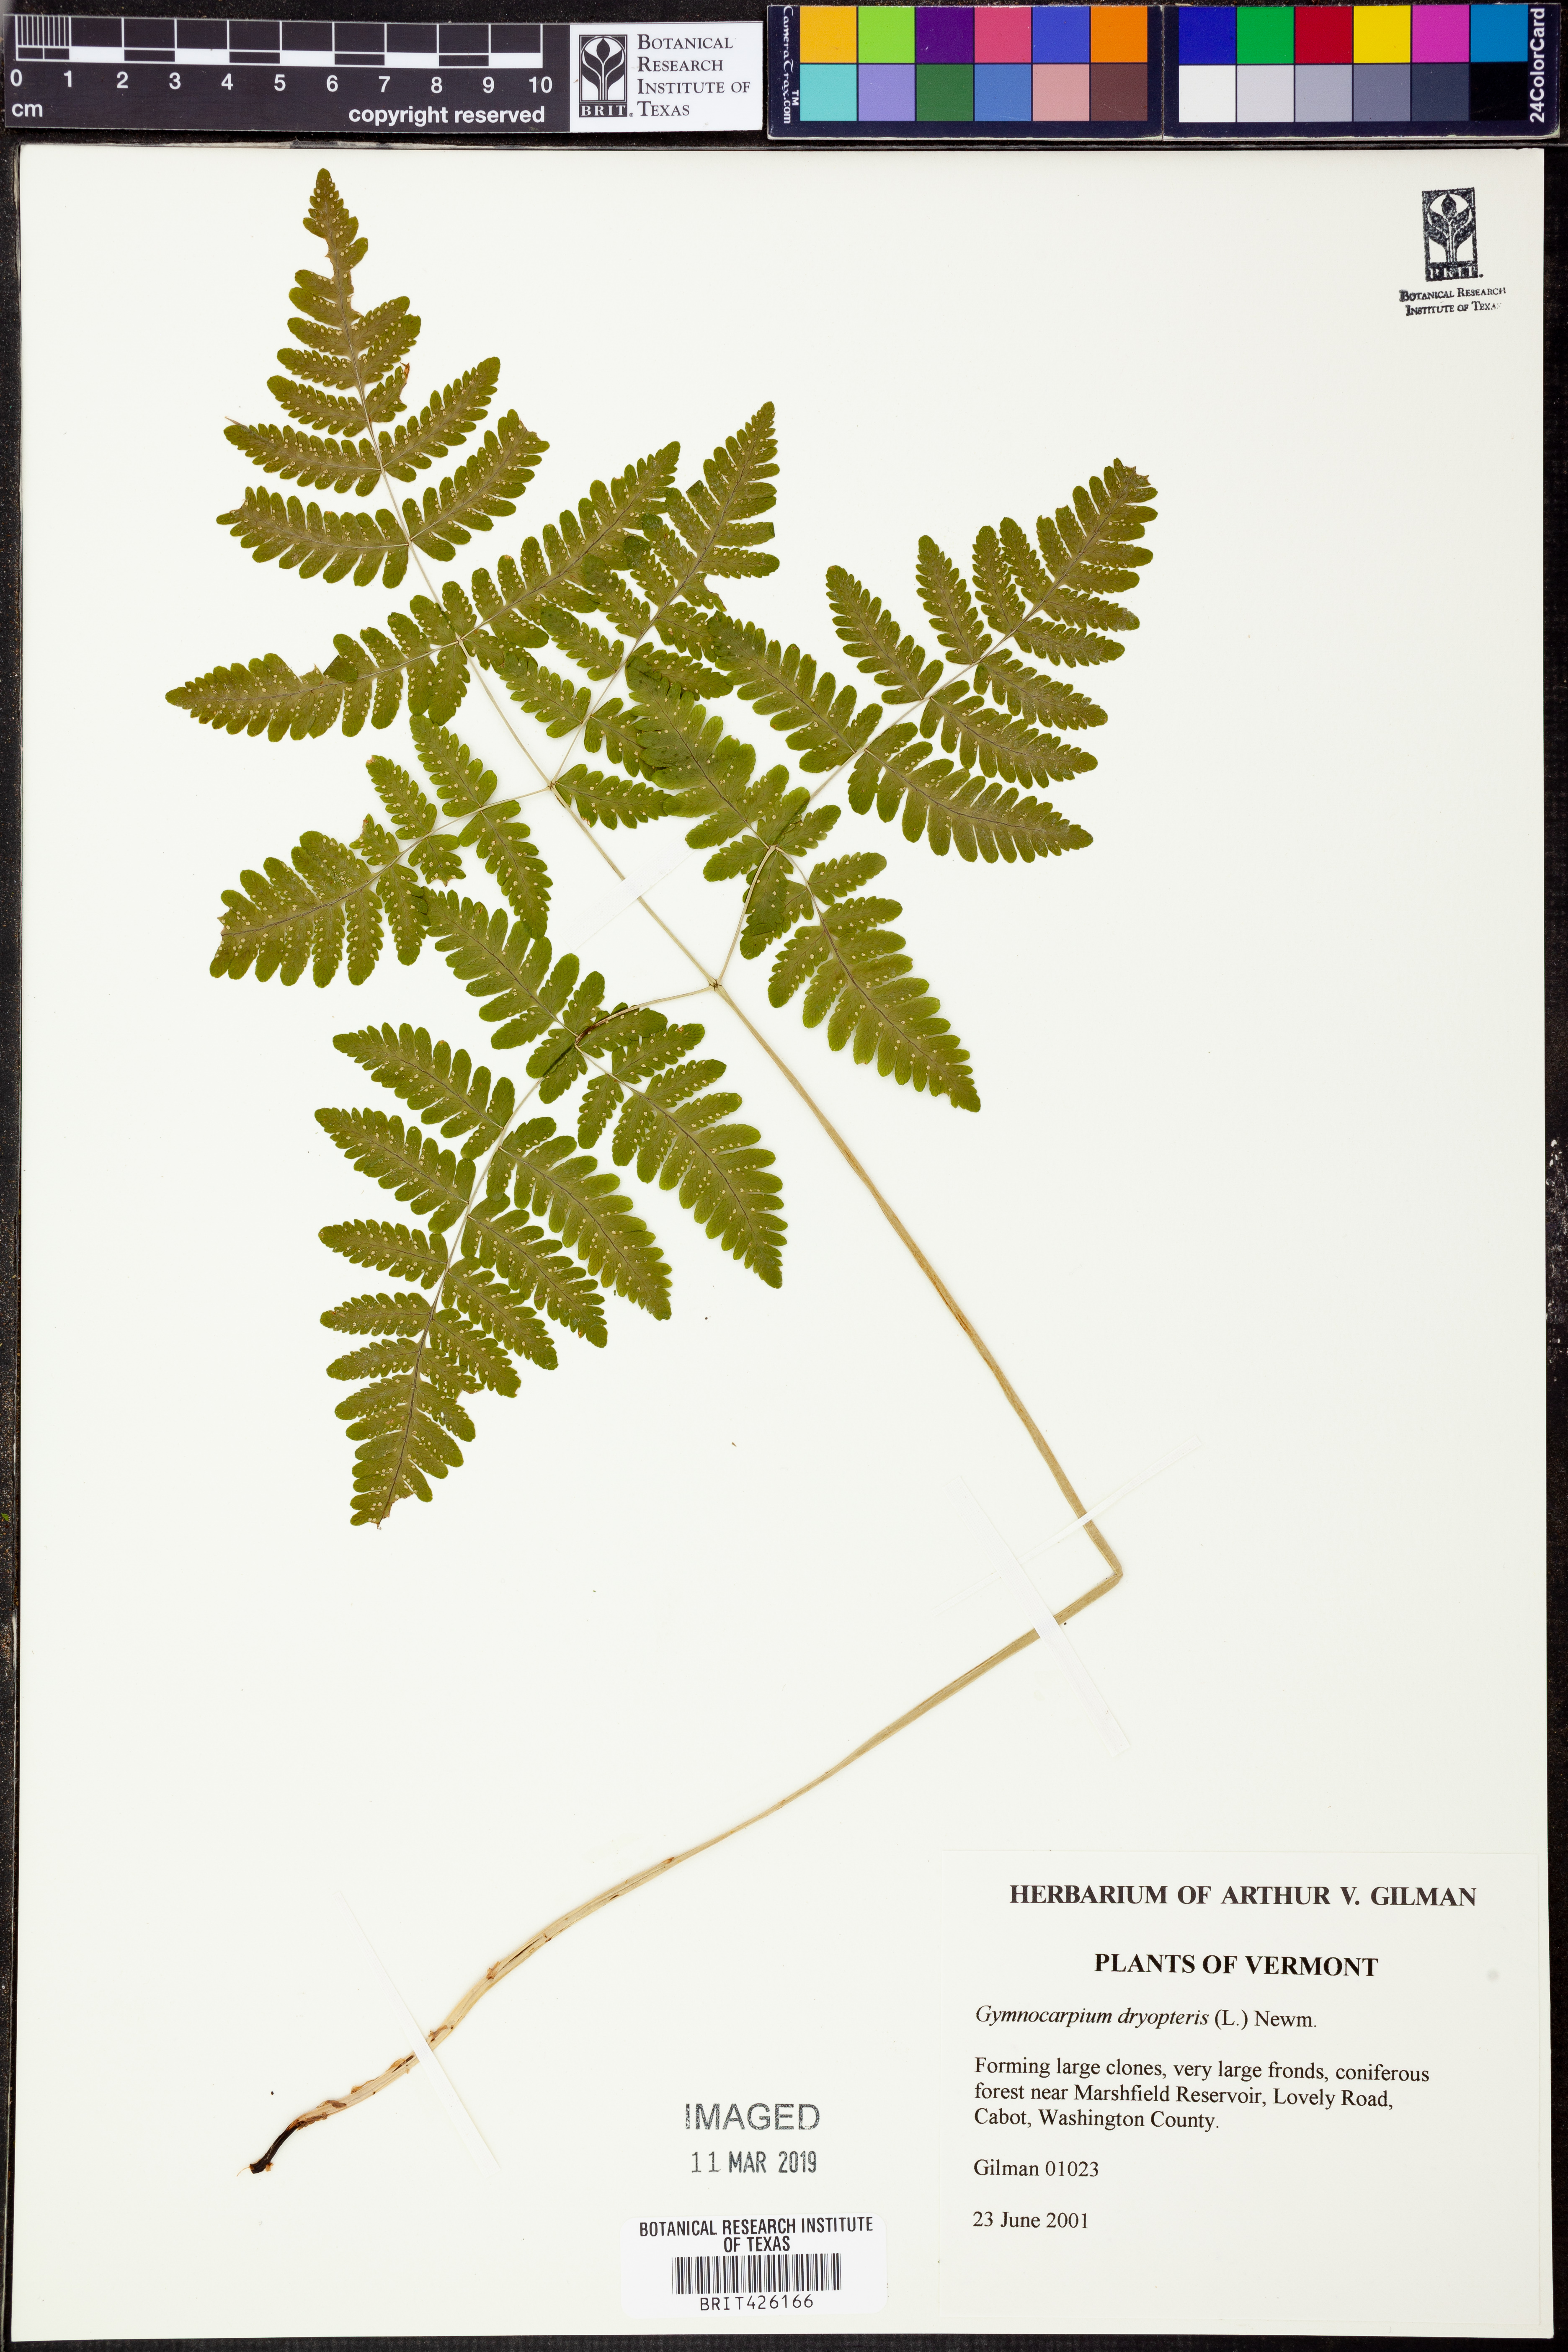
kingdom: Plantae
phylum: Tracheophyta
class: Polypodiopsida
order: Polypodiales
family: Cystopteridaceae
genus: Gymnocarpium
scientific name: Gymnocarpium dryopteris
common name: Oak fern
